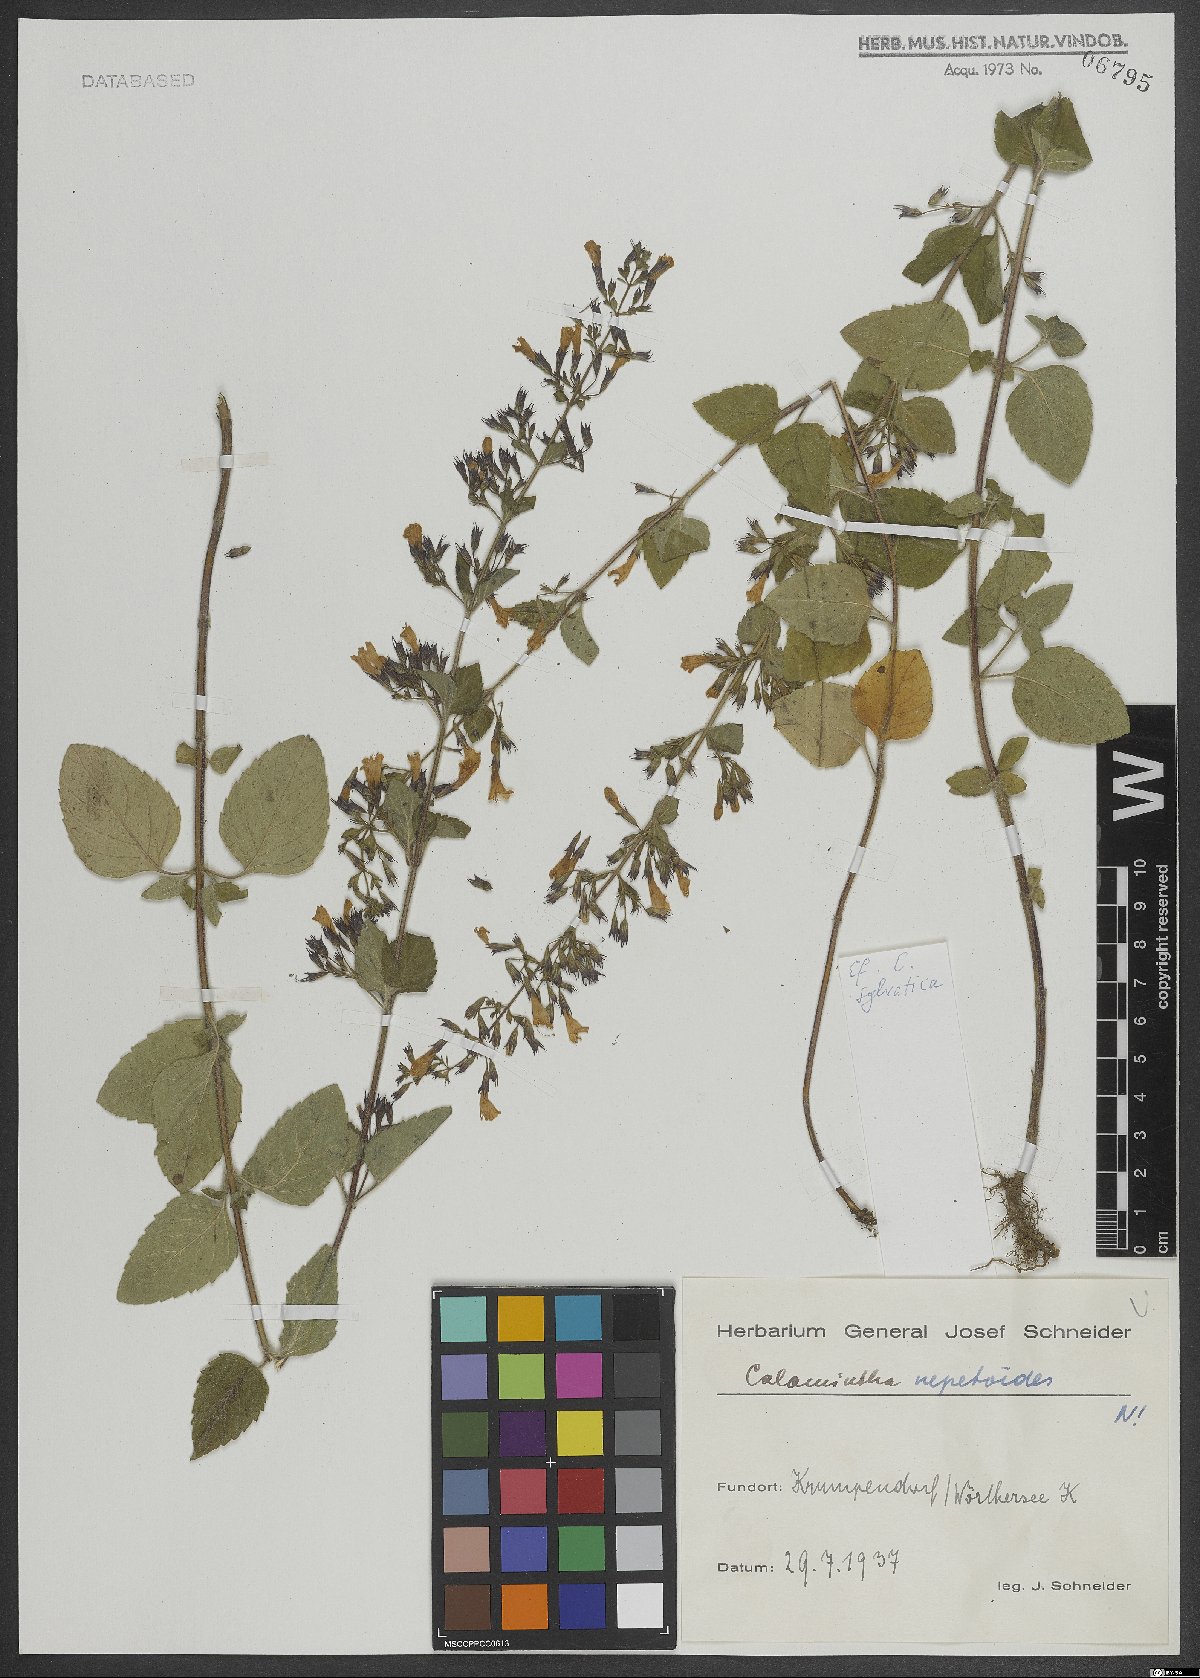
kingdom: Plantae
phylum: Tracheophyta
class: Magnoliopsida
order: Lamiales
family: Lamiaceae
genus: Clinopodium
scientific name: Clinopodium menthifolium
